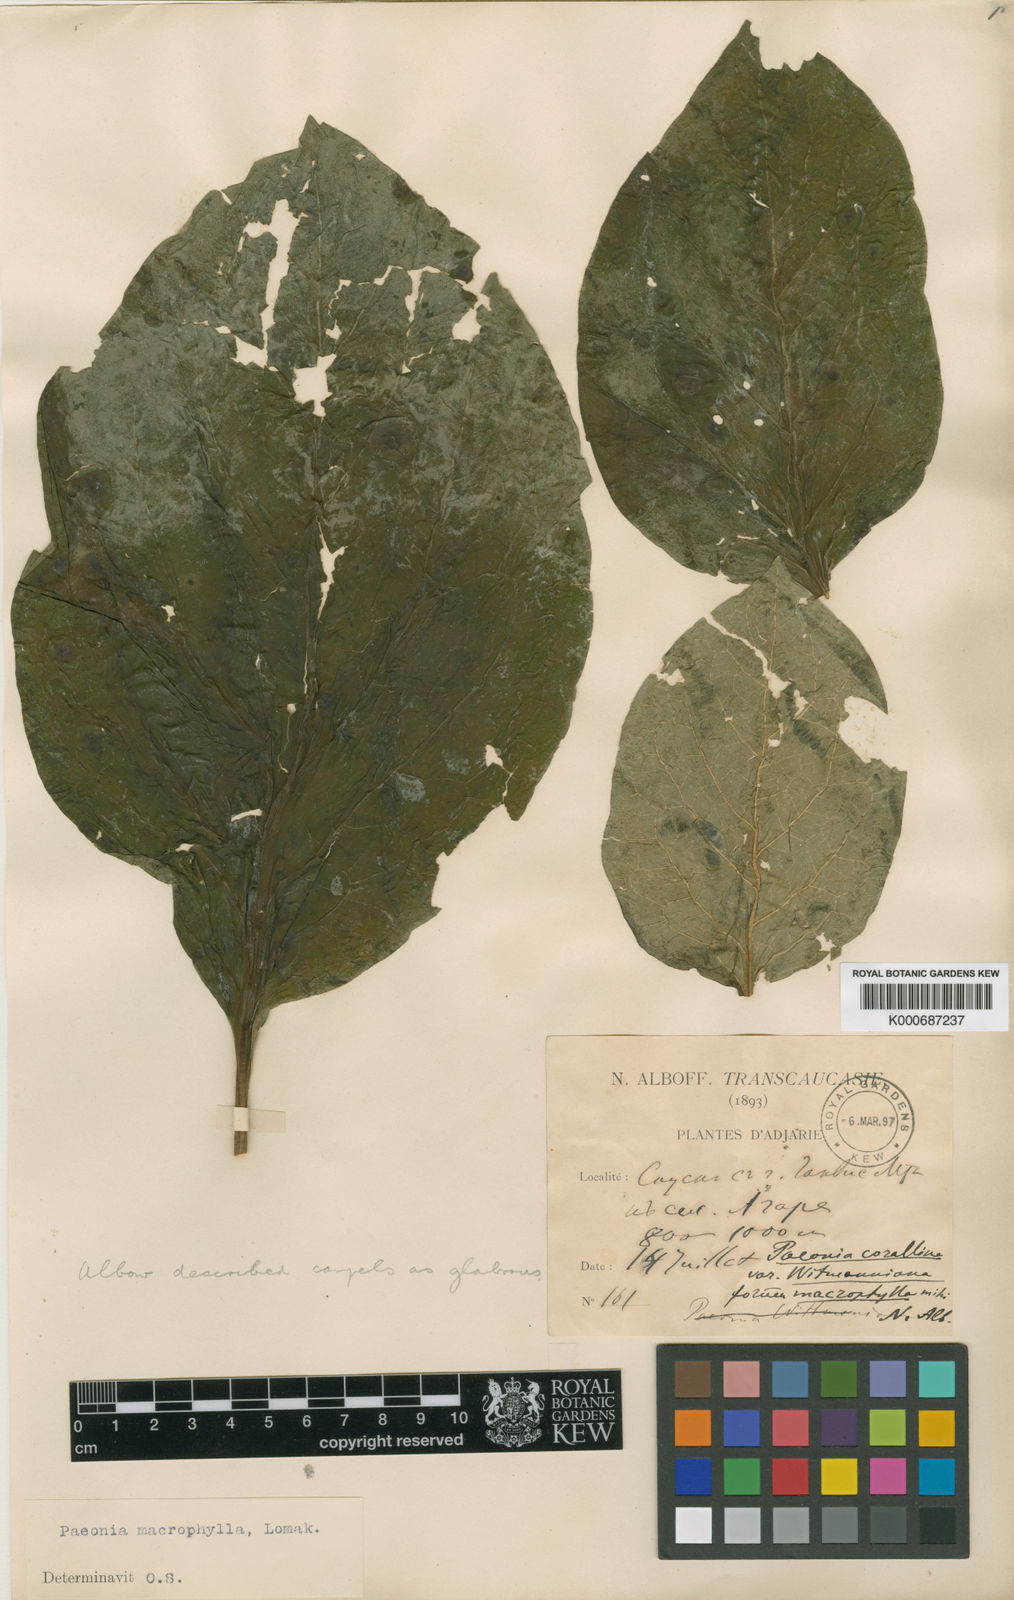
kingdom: Plantae
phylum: Tracheophyta
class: Magnoliopsida
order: Saxifragales
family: Paeoniaceae
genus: Paeonia
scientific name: Paeonia macrophylla
